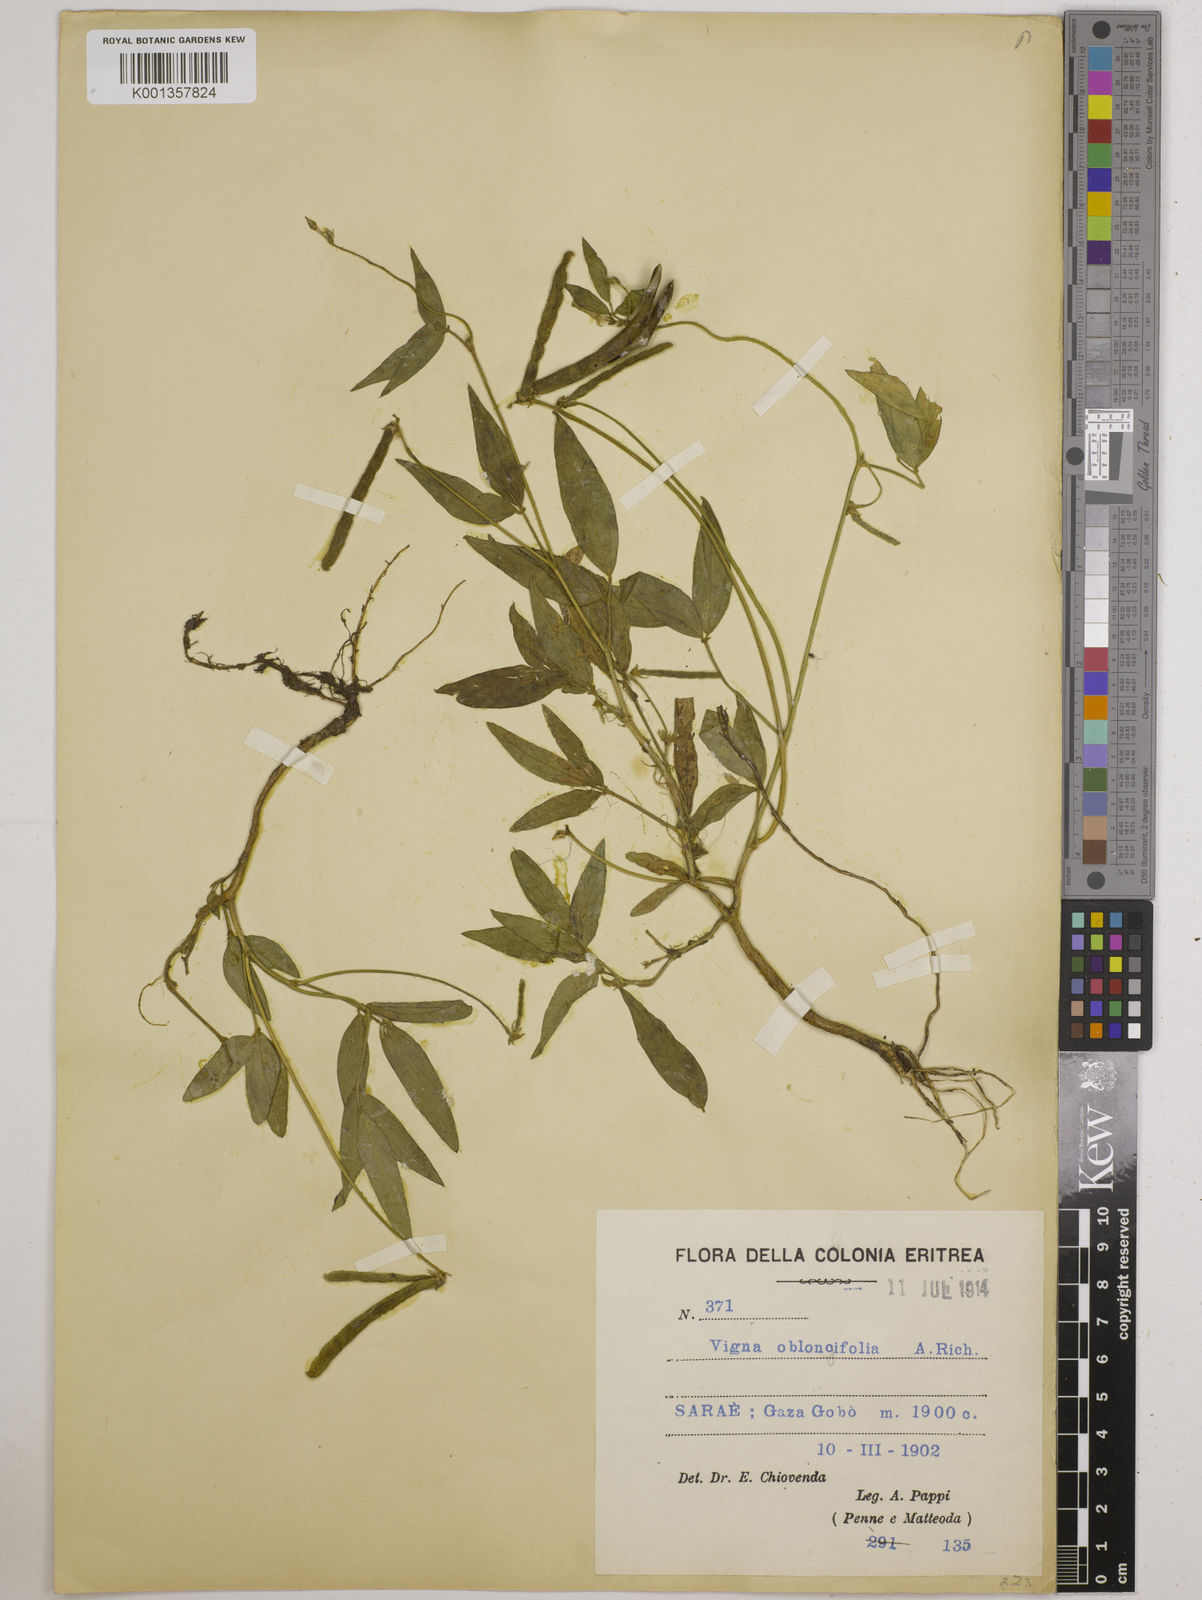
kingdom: Plantae
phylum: Tracheophyta
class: Magnoliopsida
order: Fabales
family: Fabaceae
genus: Vigna
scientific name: Vigna oblongifolia
